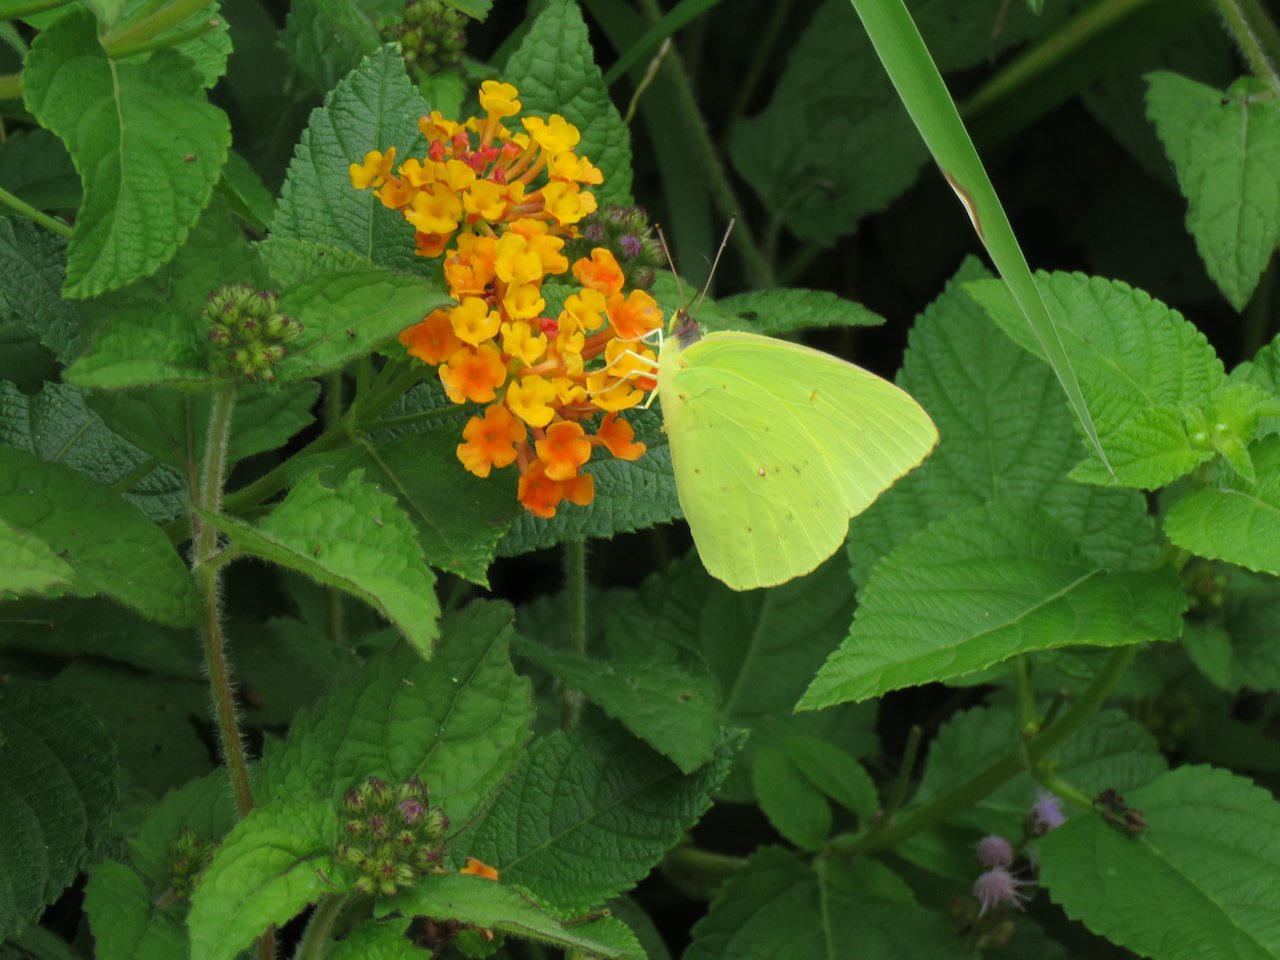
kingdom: Animalia
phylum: Arthropoda
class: Insecta
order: Lepidoptera
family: Pieridae
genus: Phoebis
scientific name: Phoebis sennae
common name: Cloudless Sulphur
